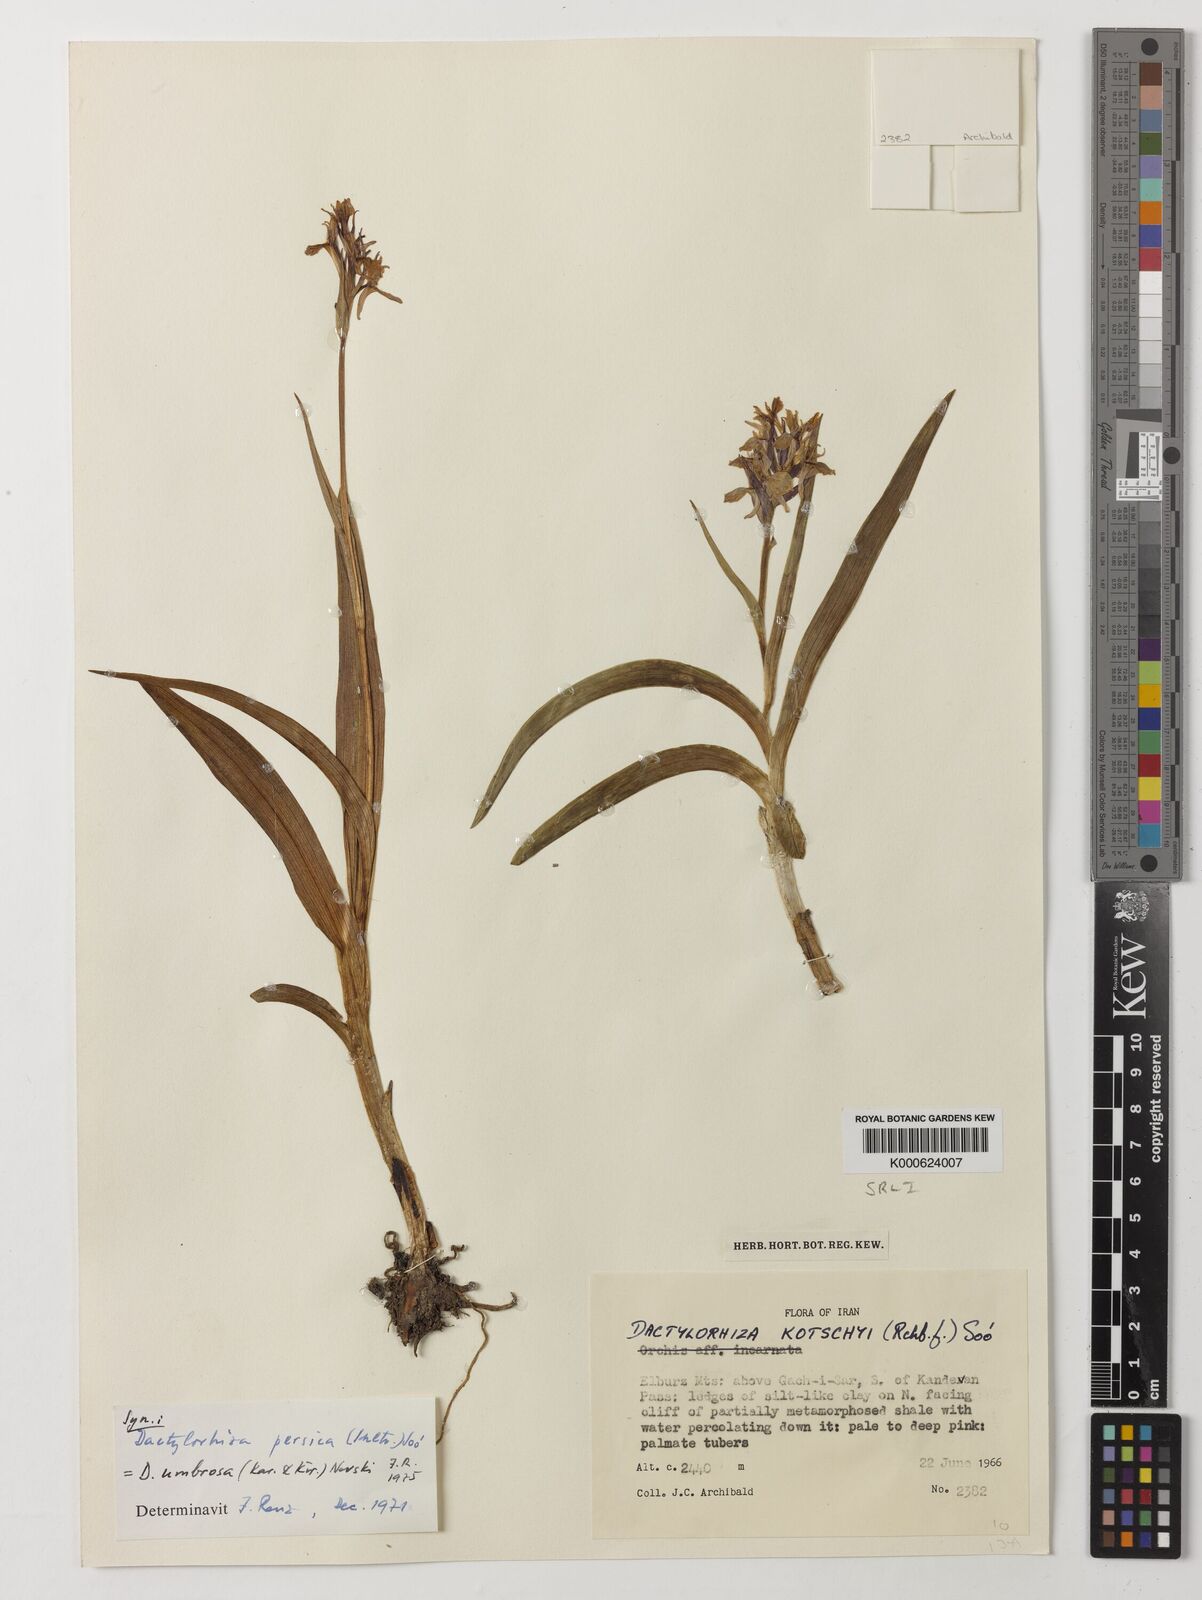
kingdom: Plantae
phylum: Tracheophyta
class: Liliopsida
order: Asparagales
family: Orchidaceae
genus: Dactylorhiza
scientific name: Dactylorhiza
